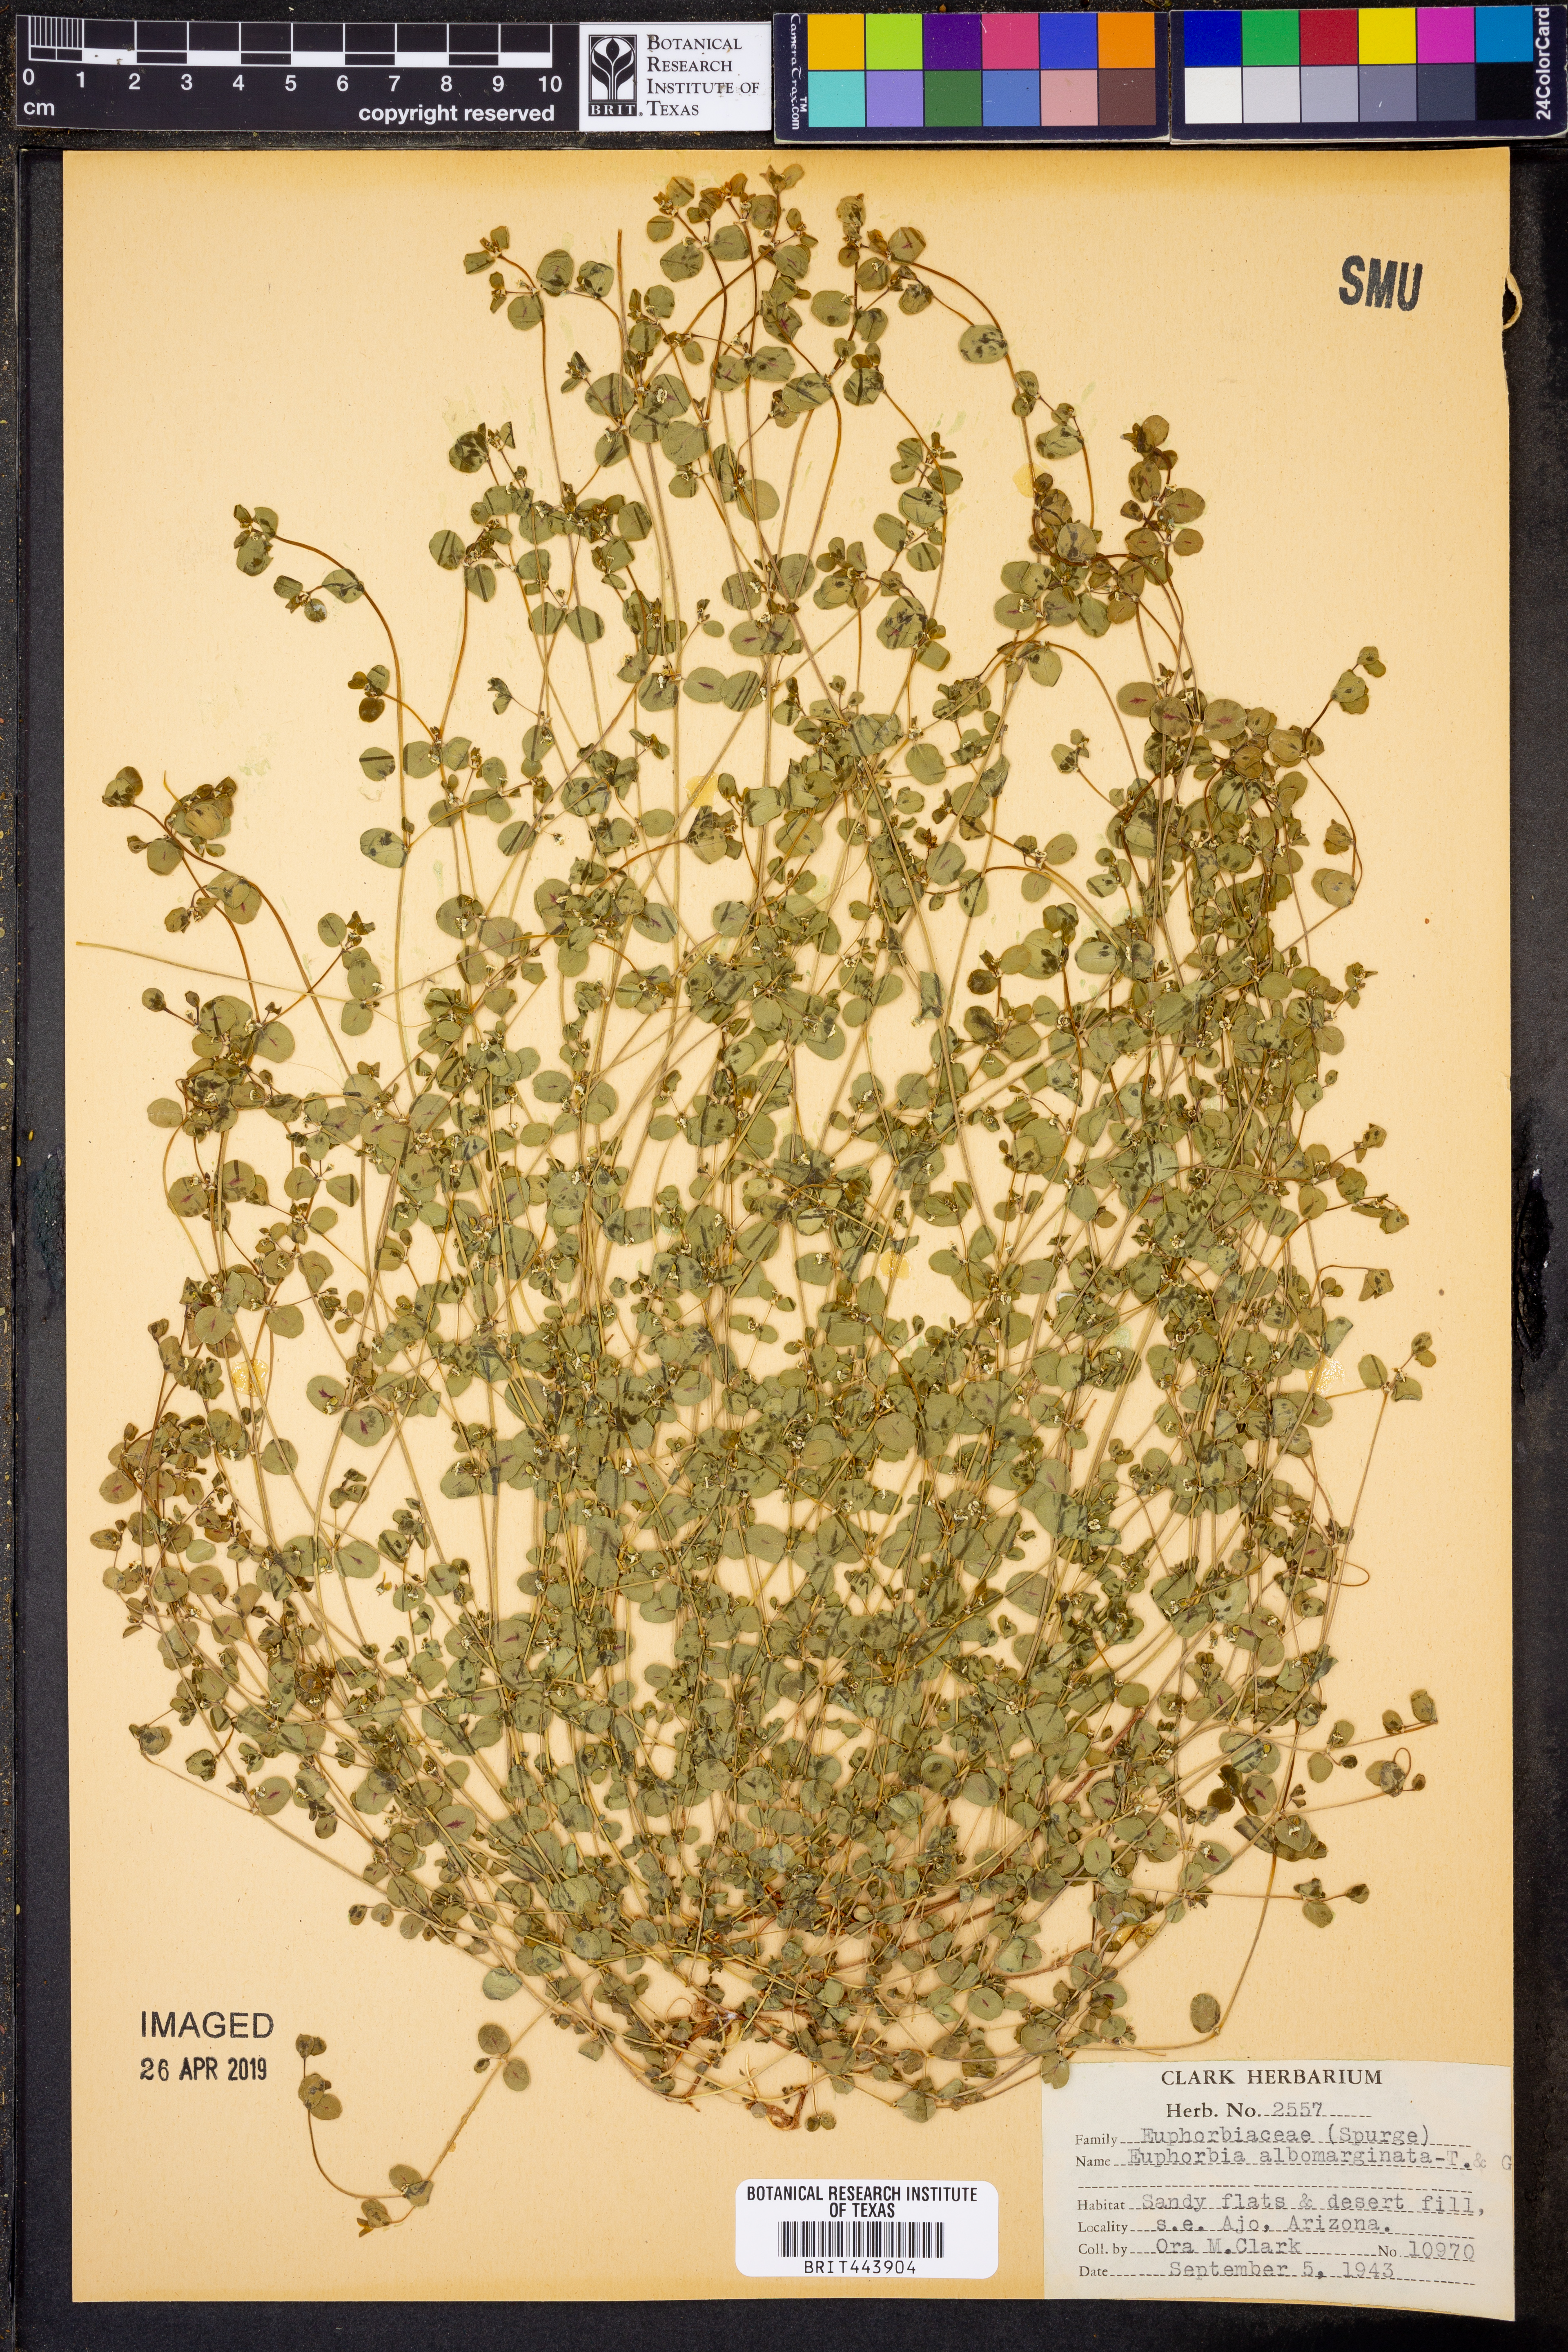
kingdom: Plantae
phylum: Tracheophyta
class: Magnoliopsida
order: Malpighiales
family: Euphorbiaceae
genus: Euphorbia
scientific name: Euphorbia albomarginata
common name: Whitemargin sandmat
